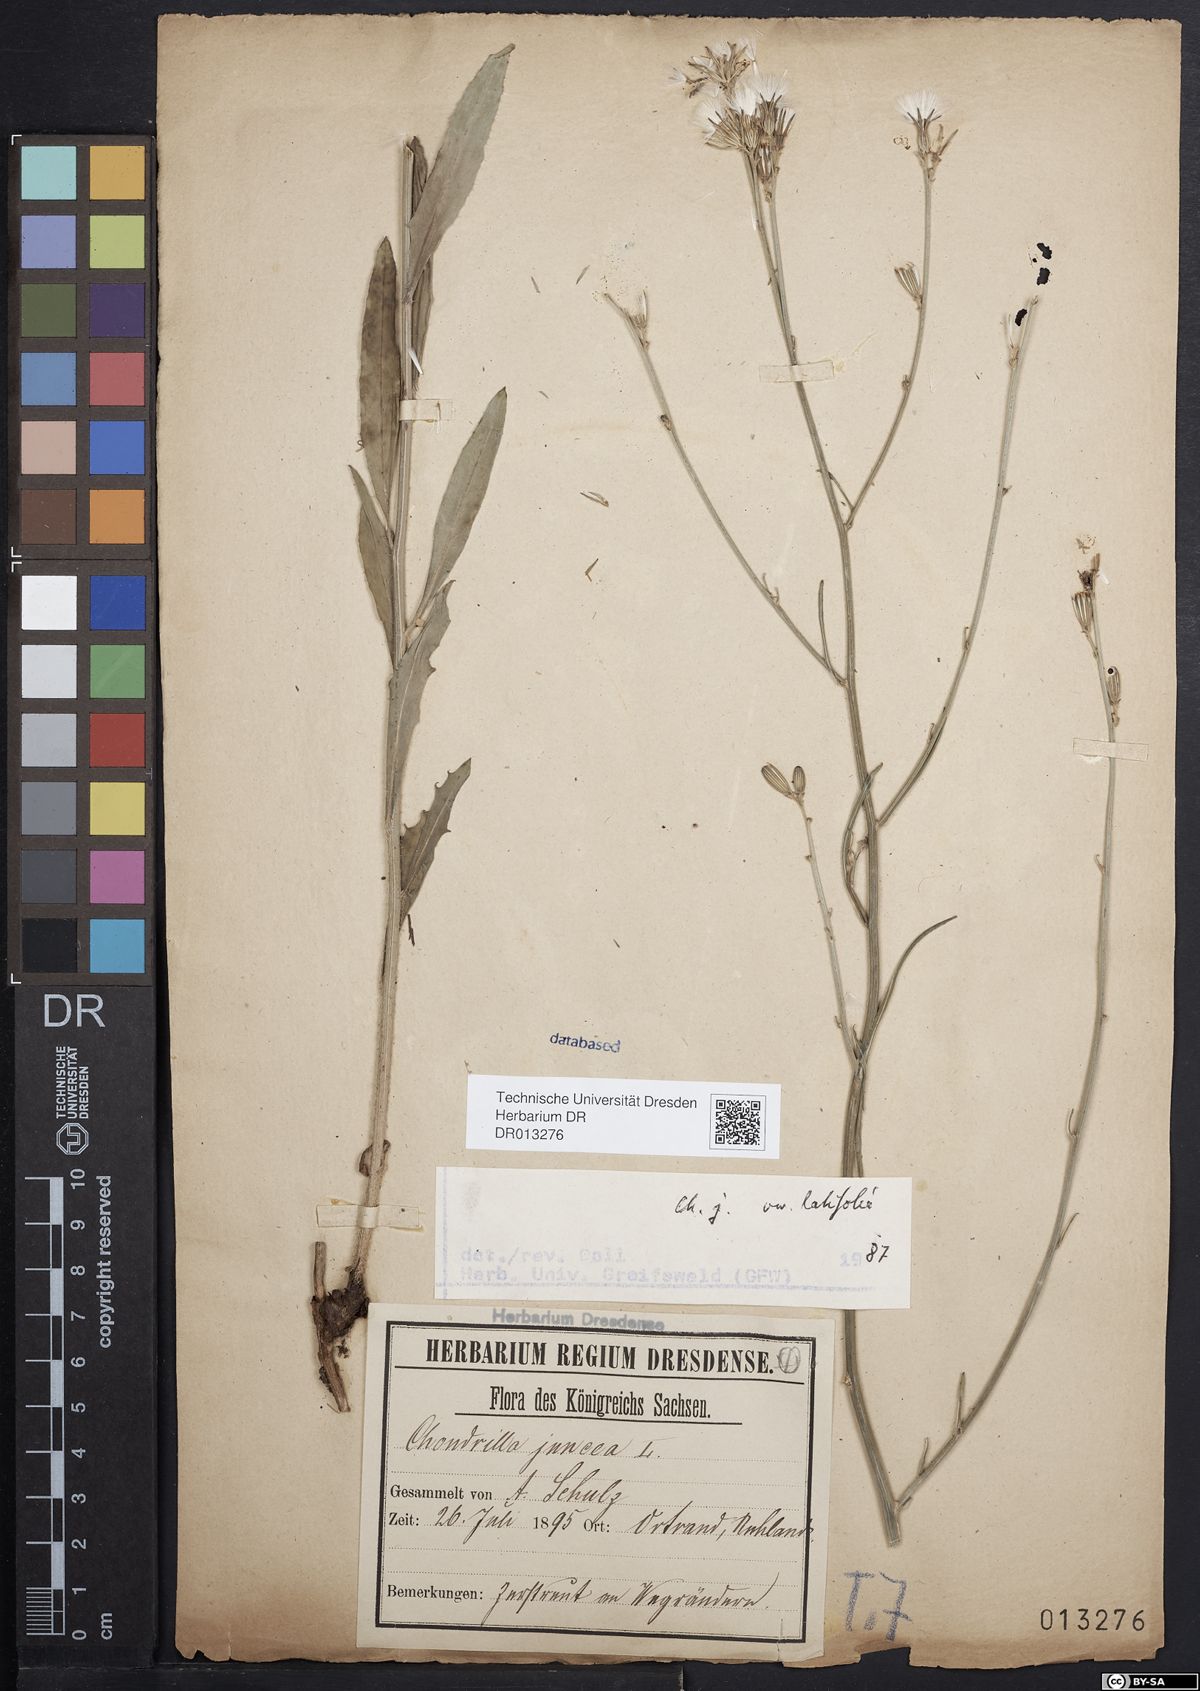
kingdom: Plantae
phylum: Tracheophyta
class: Magnoliopsida
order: Asterales
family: Asteraceae
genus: Chondrilla
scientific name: Chondrilla juncea
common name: Skeleton weed
